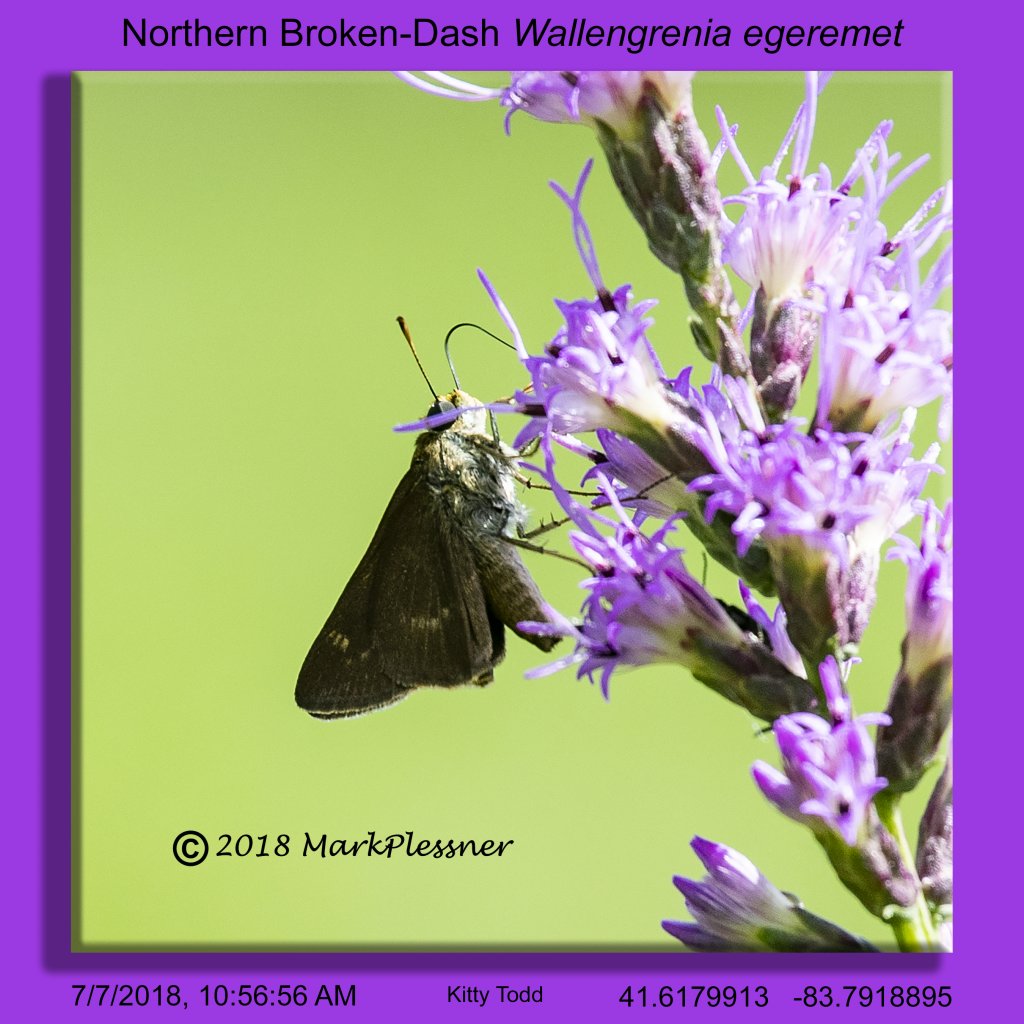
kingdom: Animalia
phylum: Arthropoda
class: Insecta
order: Lepidoptera
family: Hesperiidae
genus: Polites
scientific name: Polites egeremet
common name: Northern Broken-Dash
